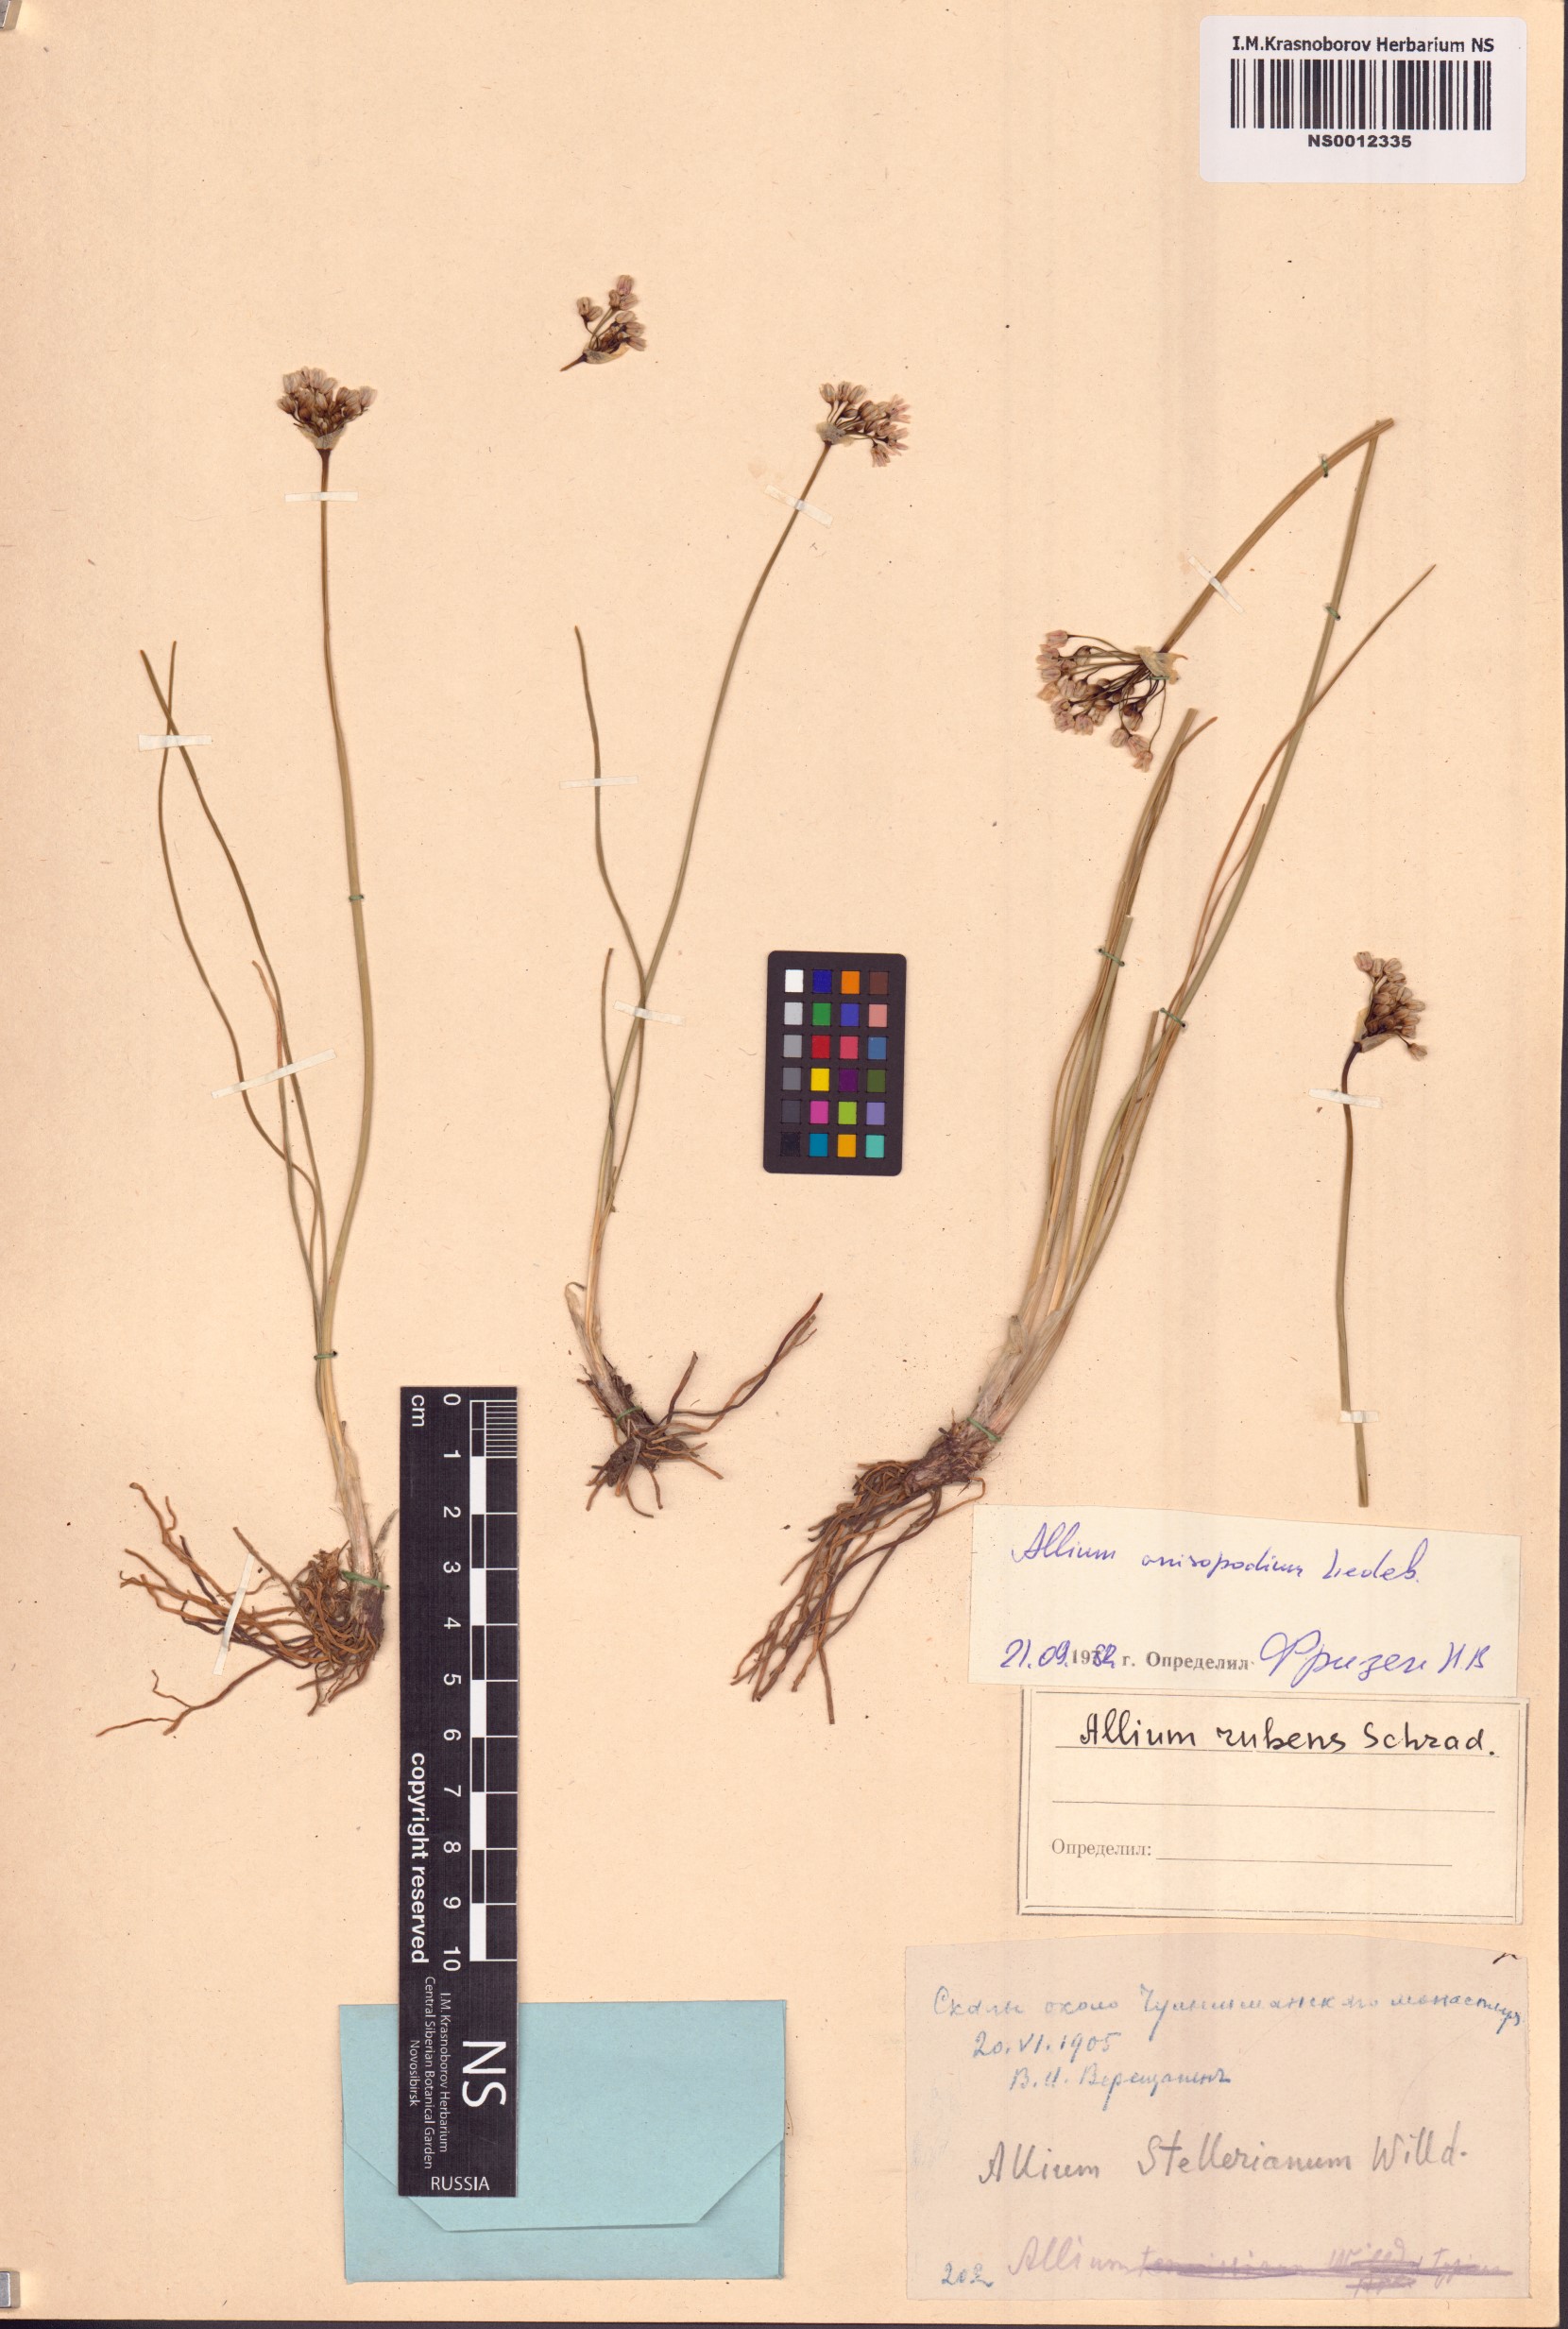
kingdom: Plantae
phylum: Tracheophyta
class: Liliopsida
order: Asparagales
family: Amaryllidaceae
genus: Allium
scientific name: Allium anisopodium
